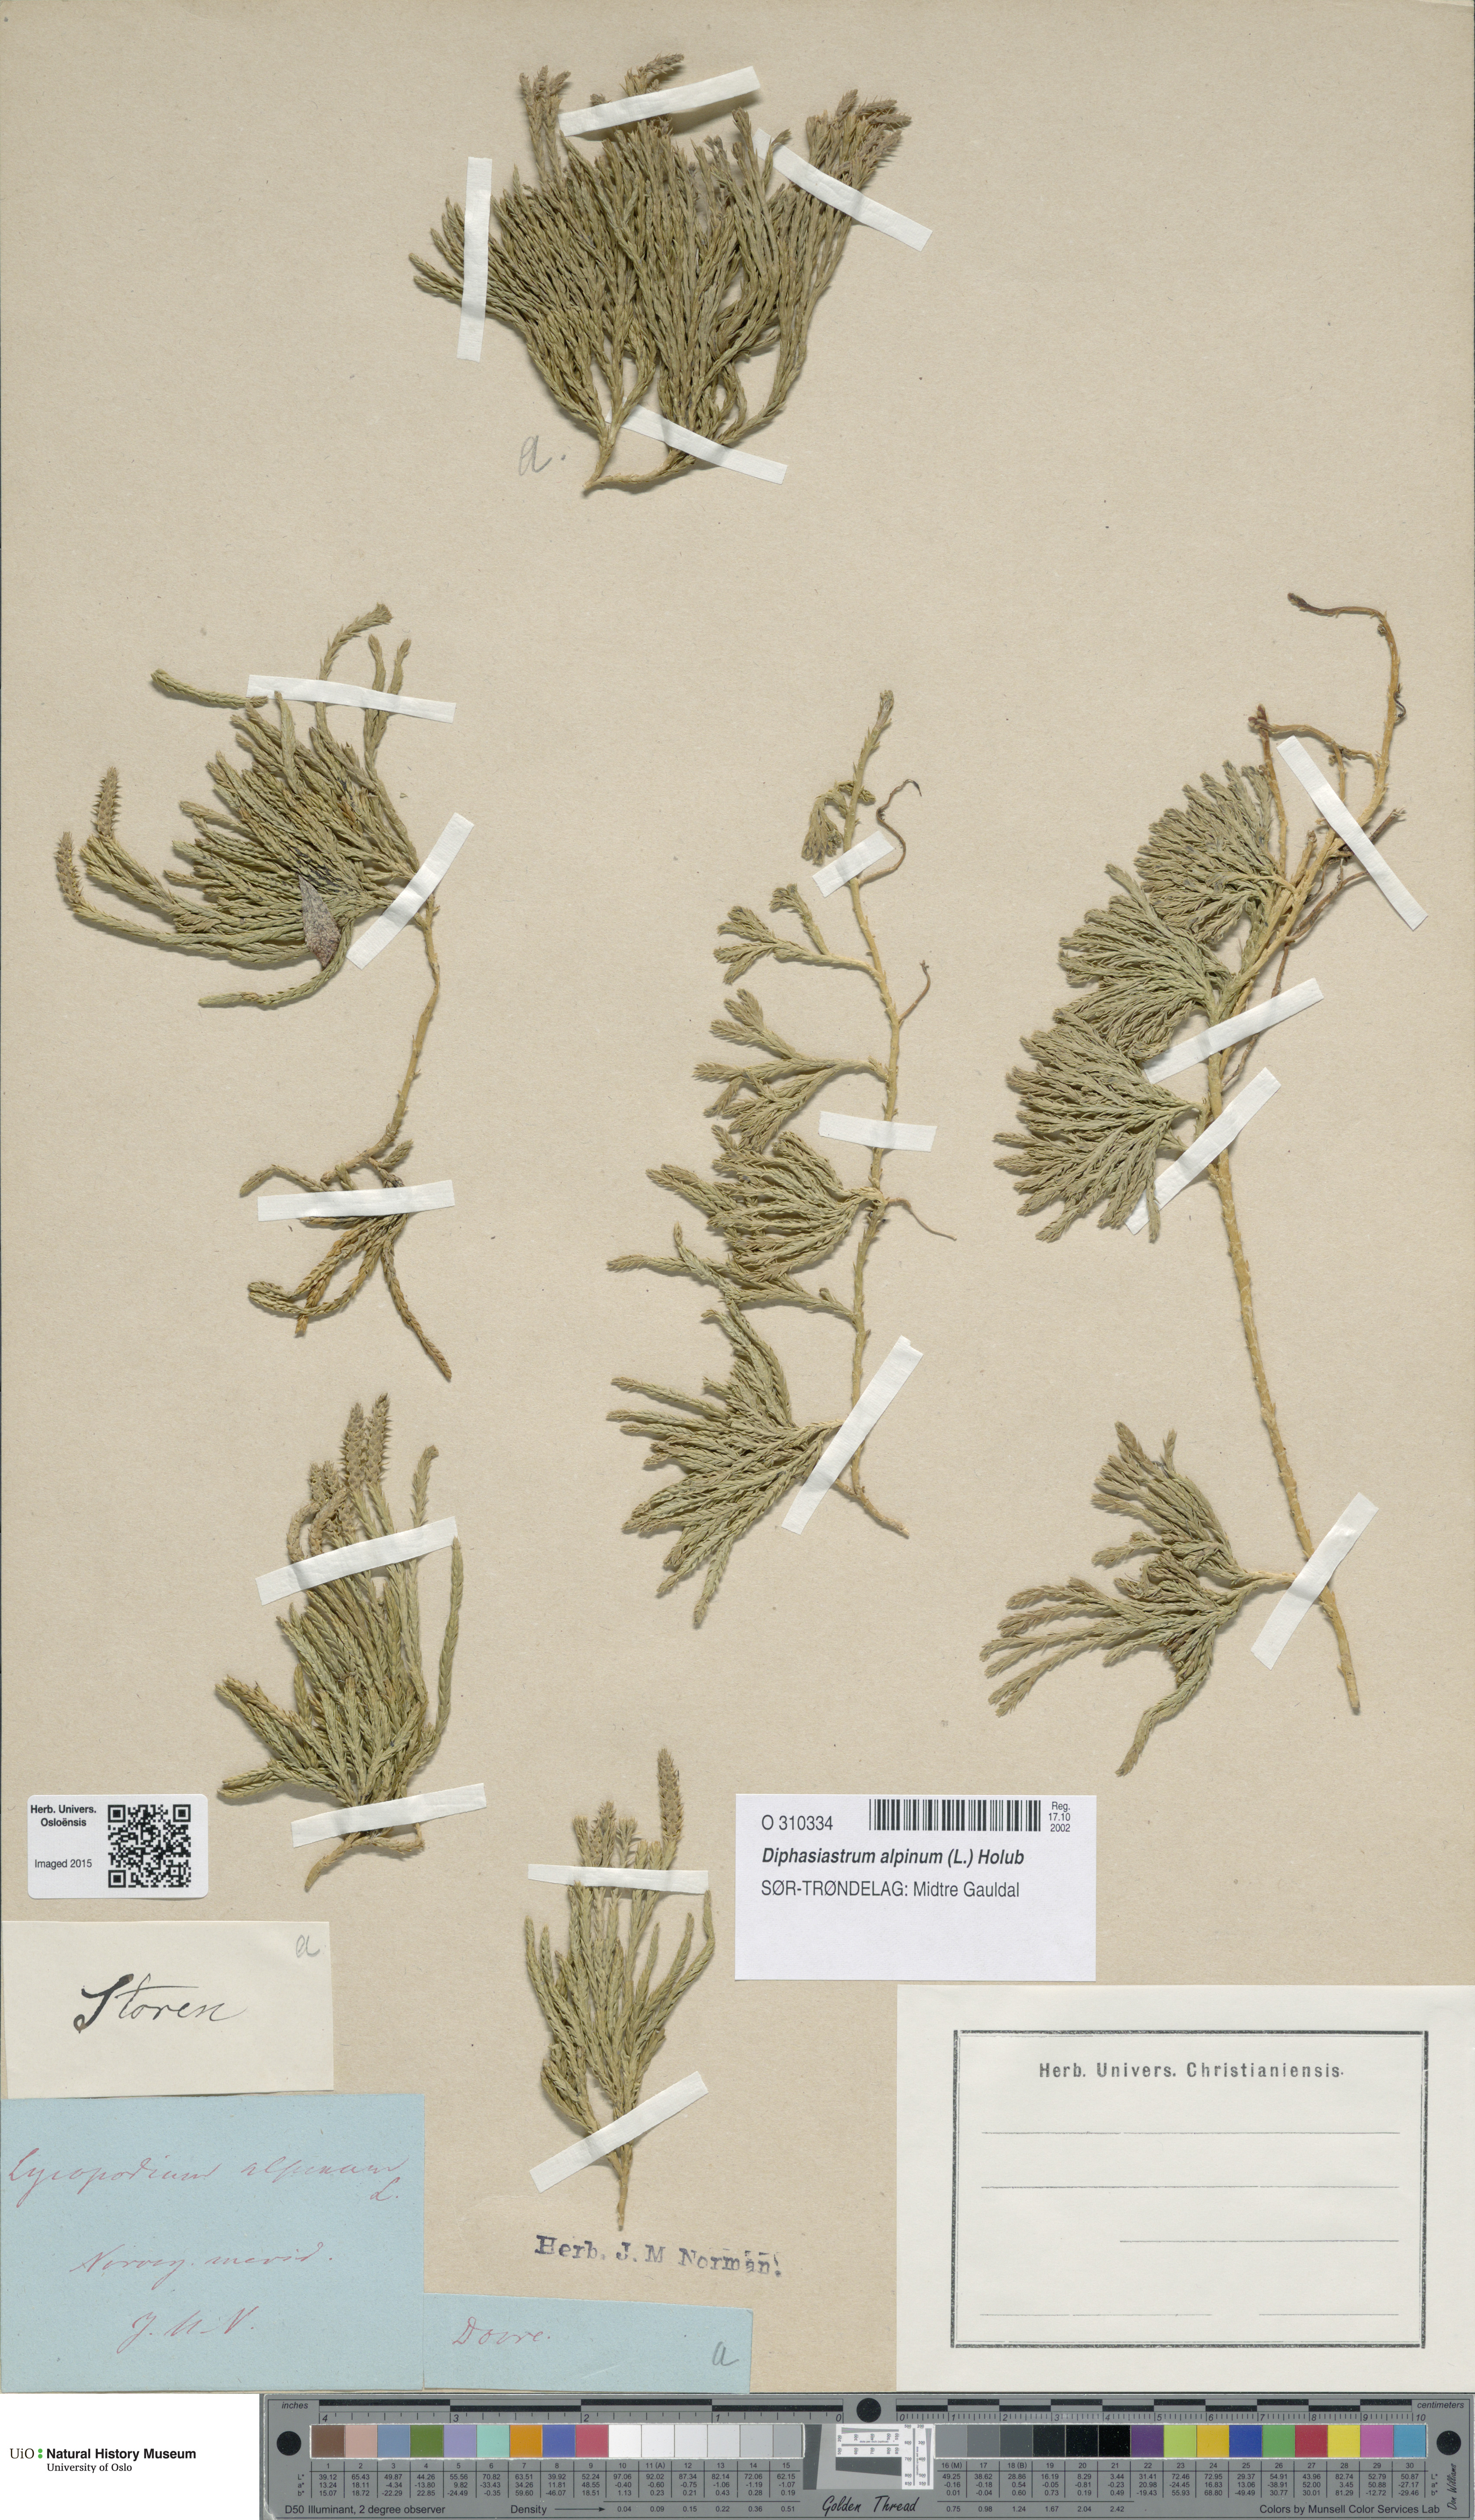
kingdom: Plantae
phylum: Tracheophyta
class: Lycopodiopsida
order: Lycopodiales
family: Lycopodiaceae
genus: Diphasiastrum
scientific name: Diphasiastrum alpinum
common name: Alpine clubmoss
